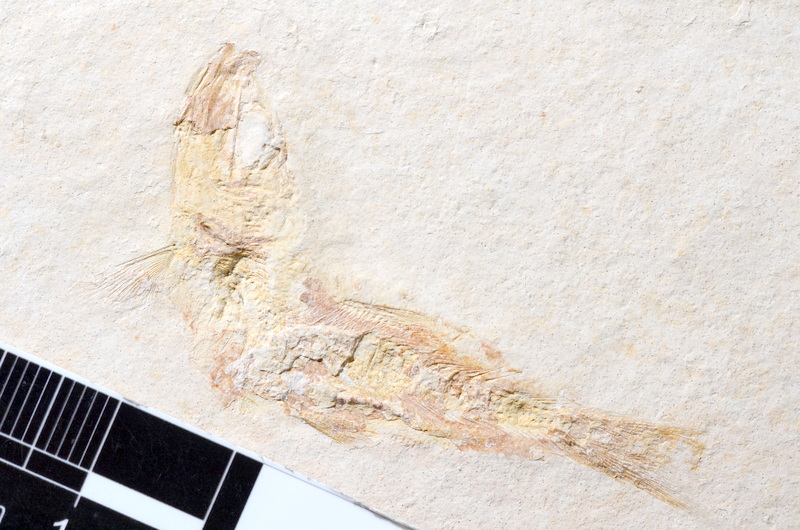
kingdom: Animalia
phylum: Chordata
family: Ascalaboidae
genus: Tharsis
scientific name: Tharsis dubius
